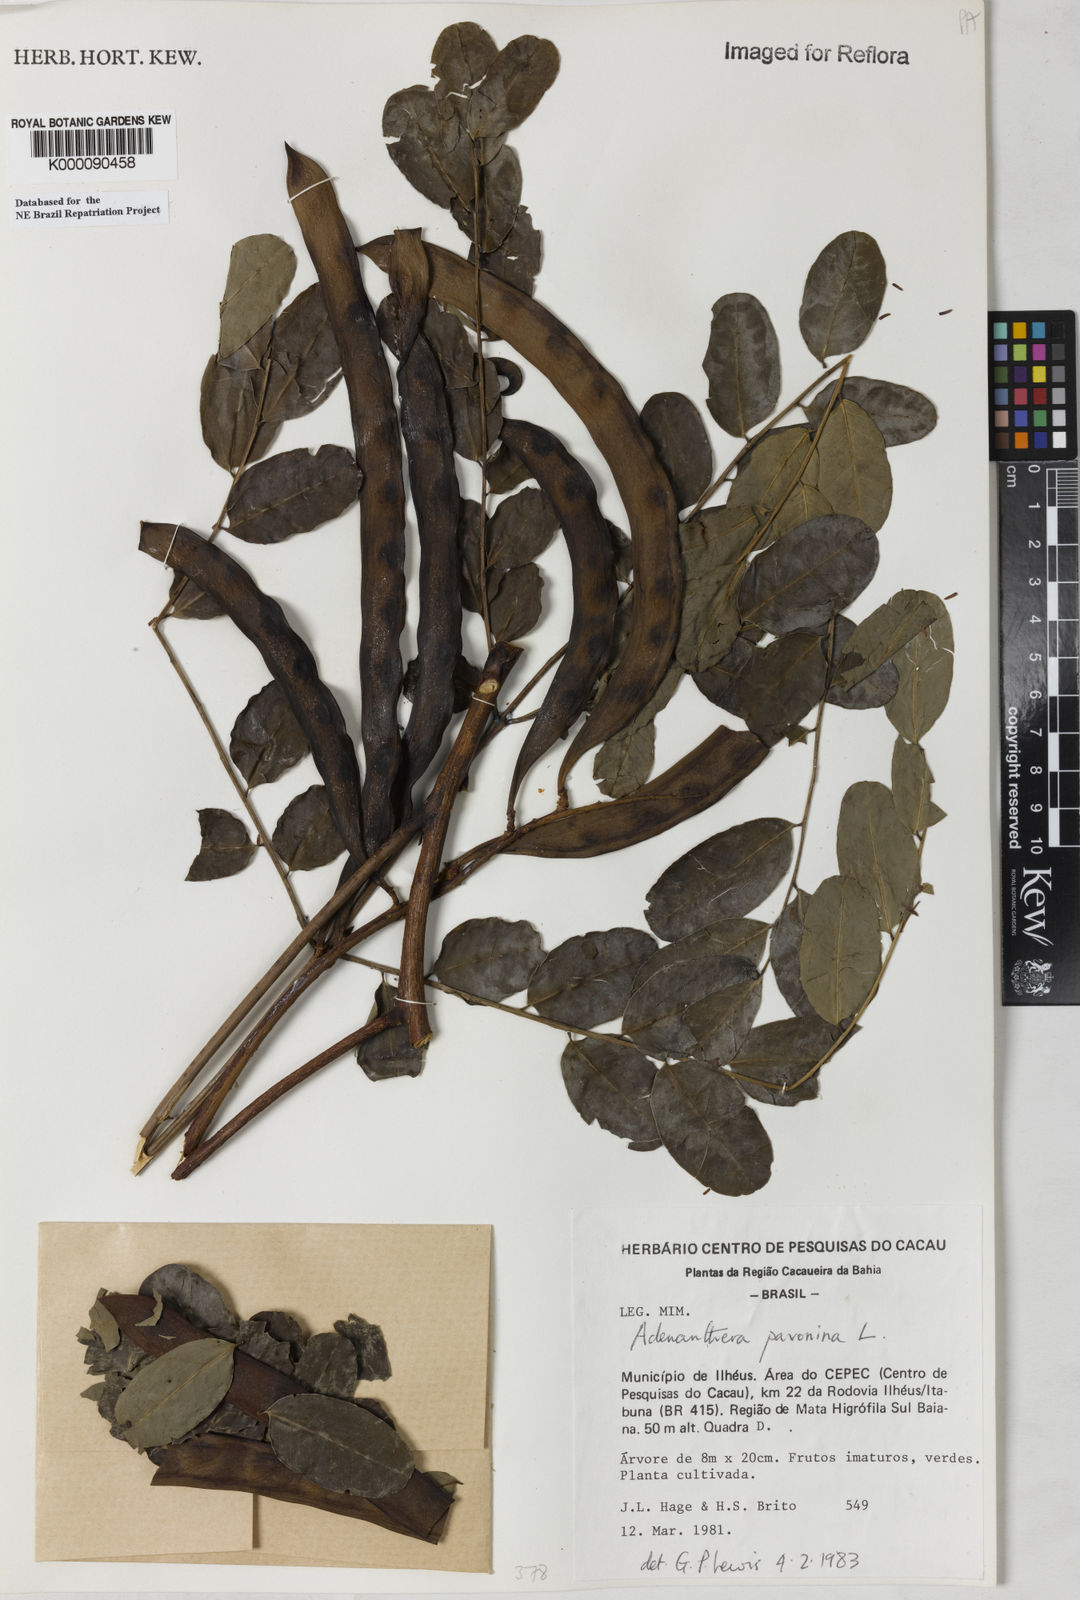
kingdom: Plantae
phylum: Tracheophyta
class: Magnoliopsida
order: Fabales
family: Fabaceae
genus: Adenanthera
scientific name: Adenanthera pavonina
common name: Red beadtree
